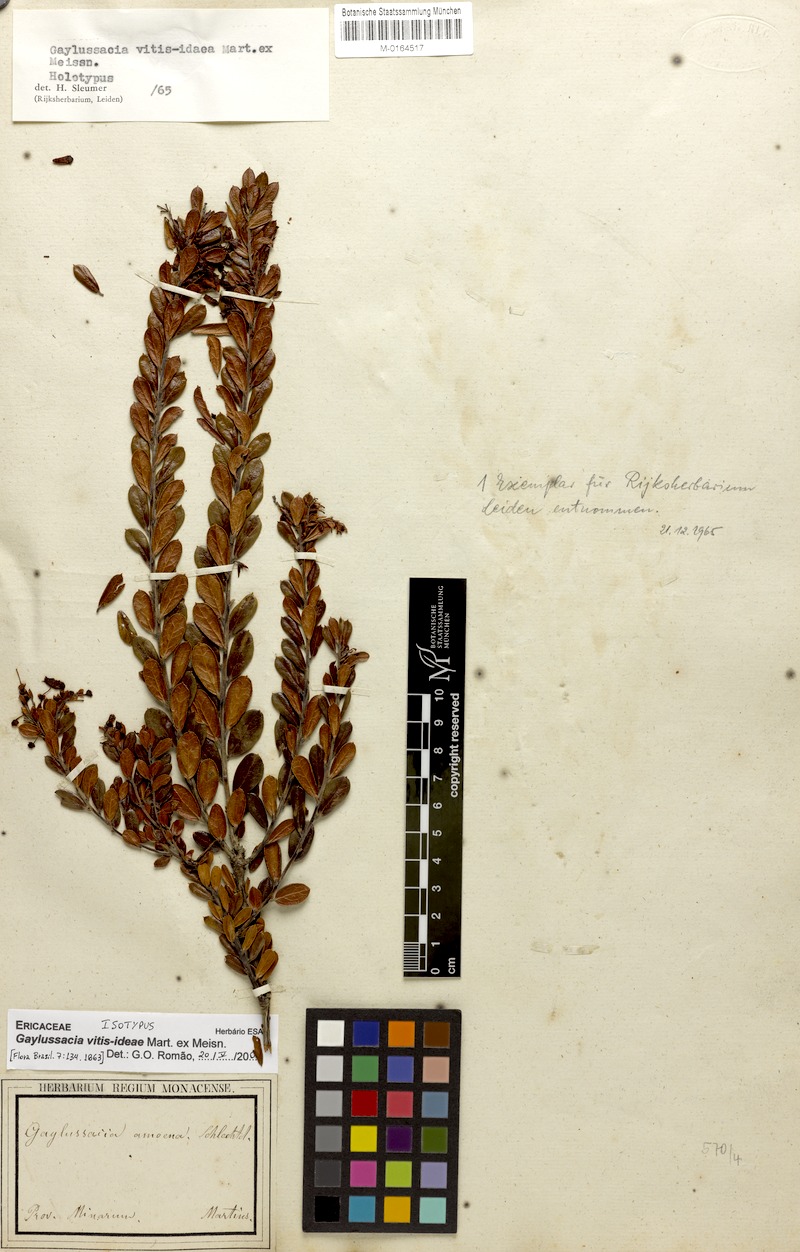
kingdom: Plantae
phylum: Tracheophyta
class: Magnoliopsida
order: Ericales
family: Ericaceae
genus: Gaylussacia
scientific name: Gaylussacia vitis-idaea
